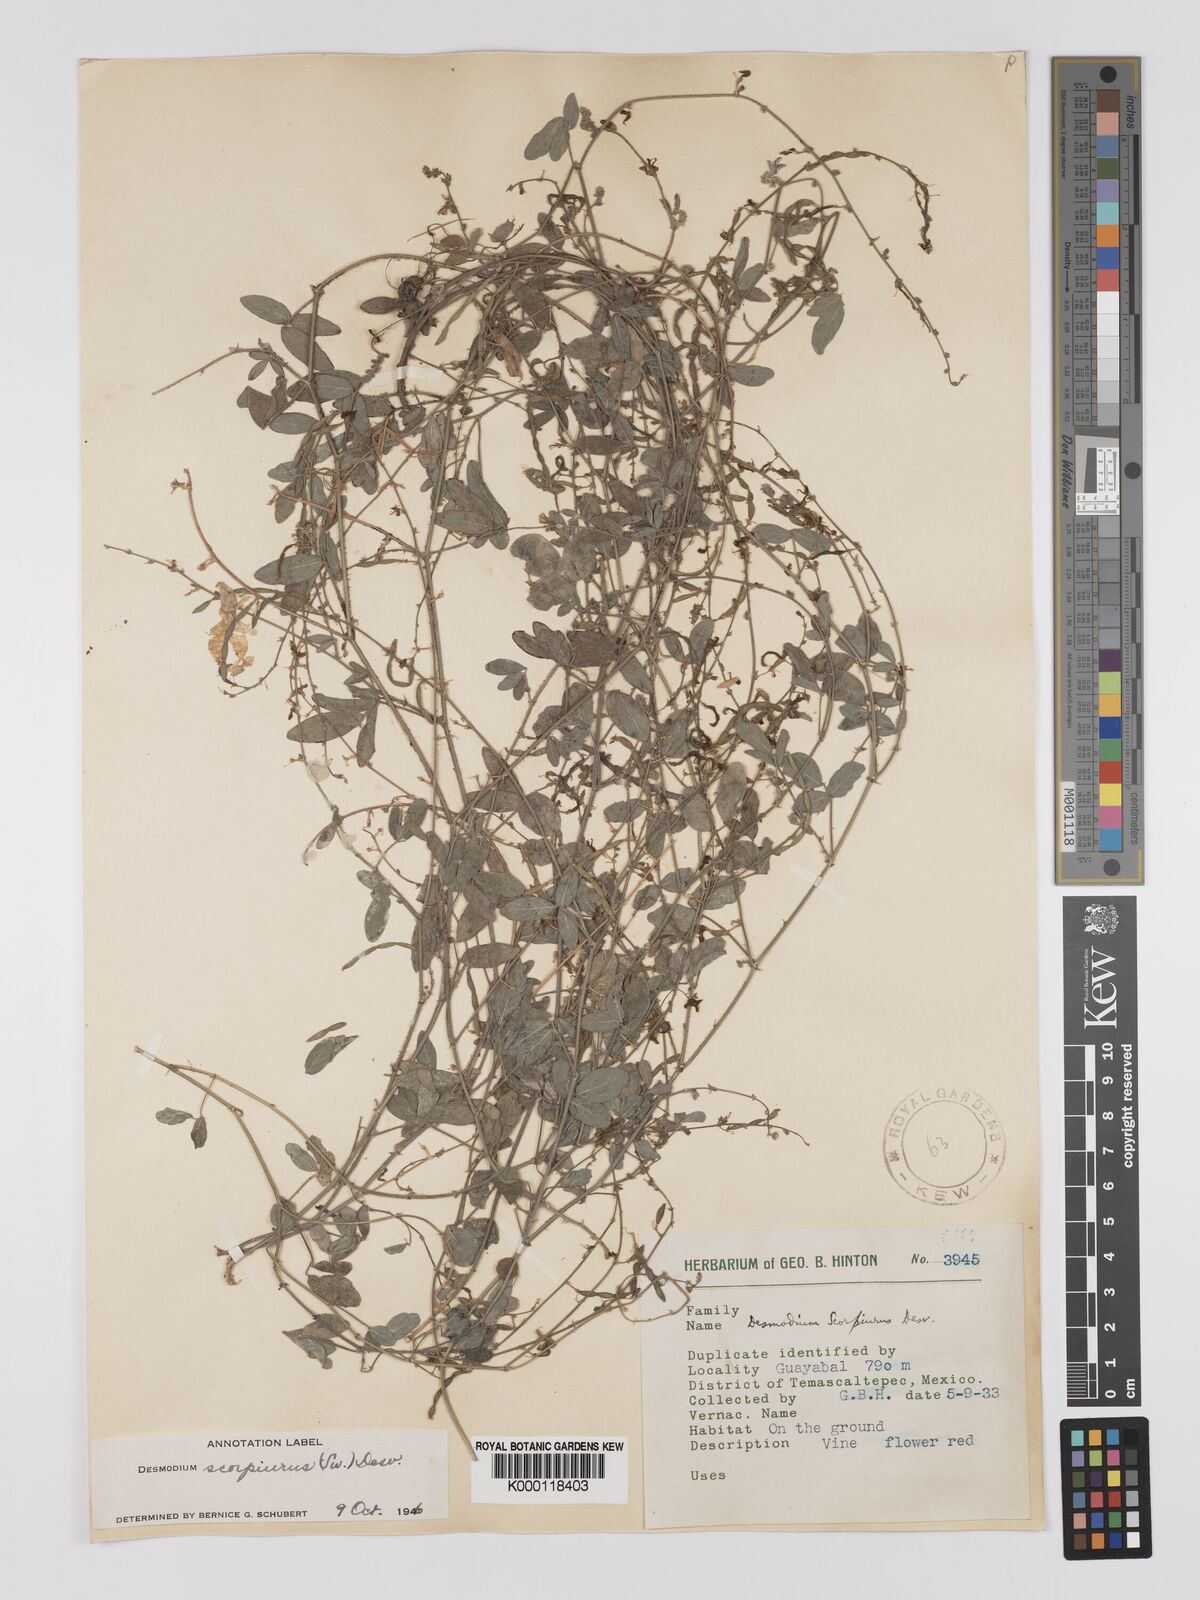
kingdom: Plantae
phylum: Tracheophyta
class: Magnoliopsida
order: Fabales
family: Fabaceae
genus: Desmodium
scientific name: Desmodium
